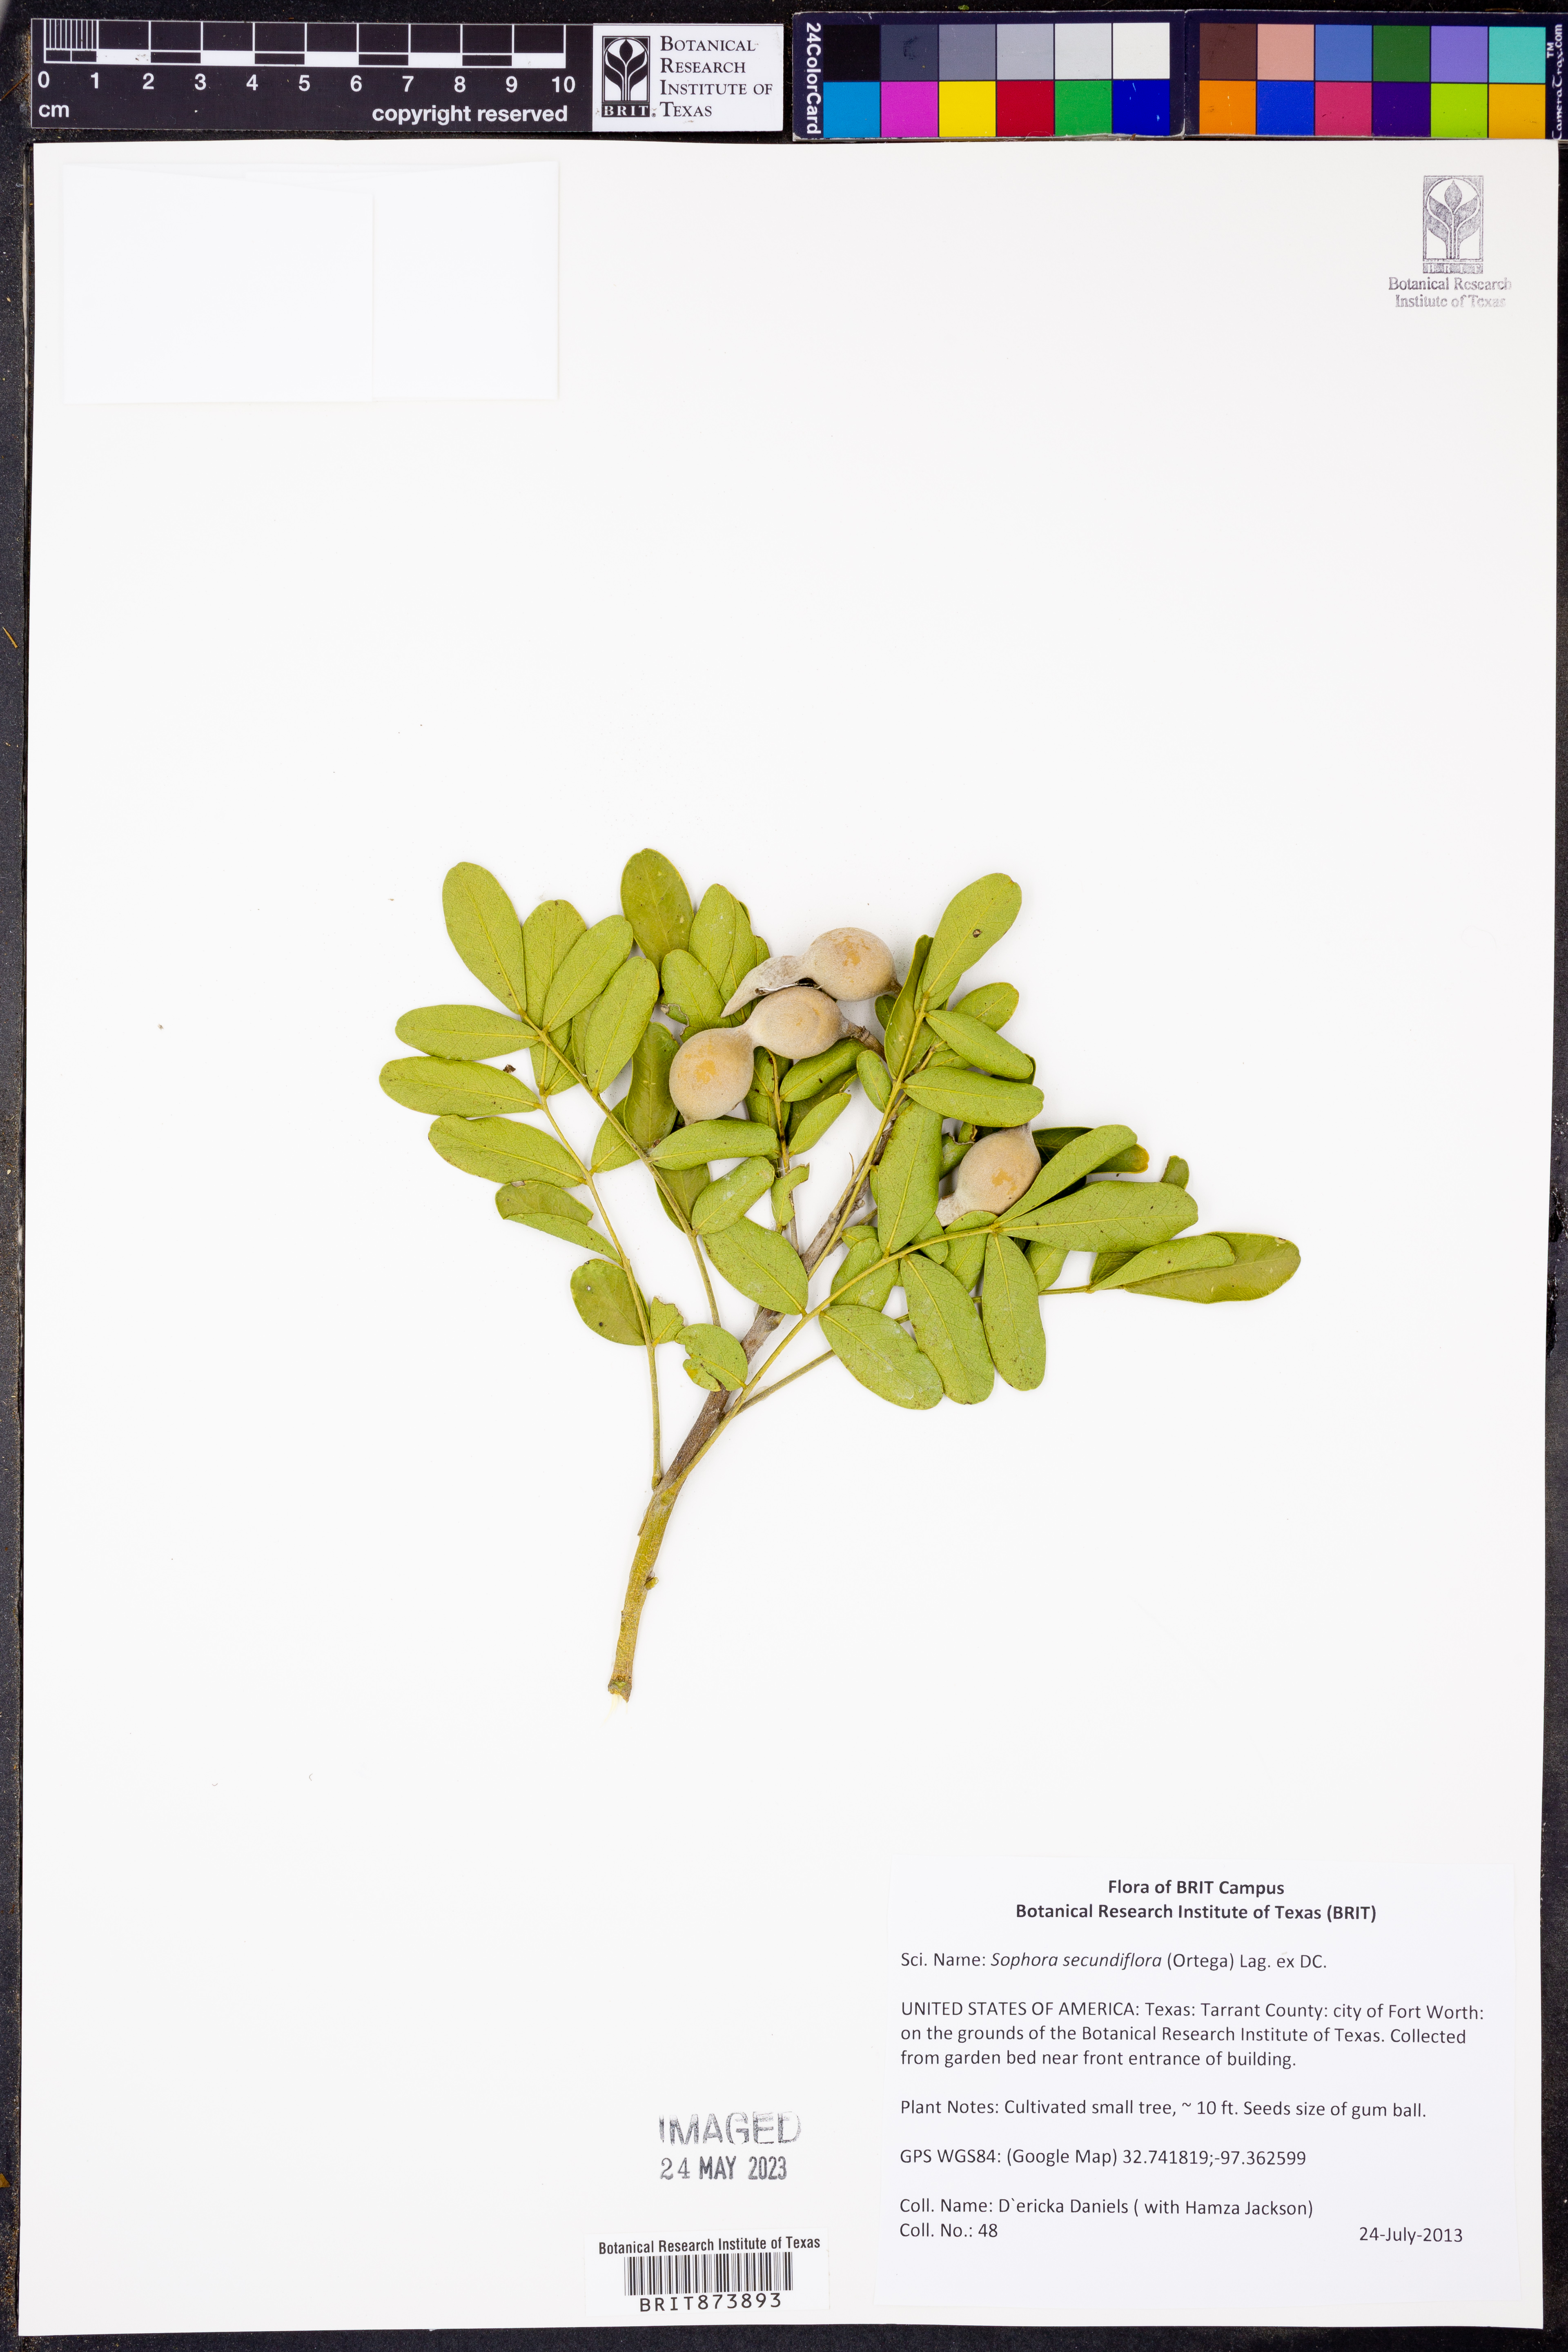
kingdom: Plantae
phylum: Tracheophyta
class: Magnoliopsida
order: Fabales
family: Fabaceae
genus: Dermatophyllum
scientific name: Dermatophyllum secundiflorum
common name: Texas-mountain-laurel
